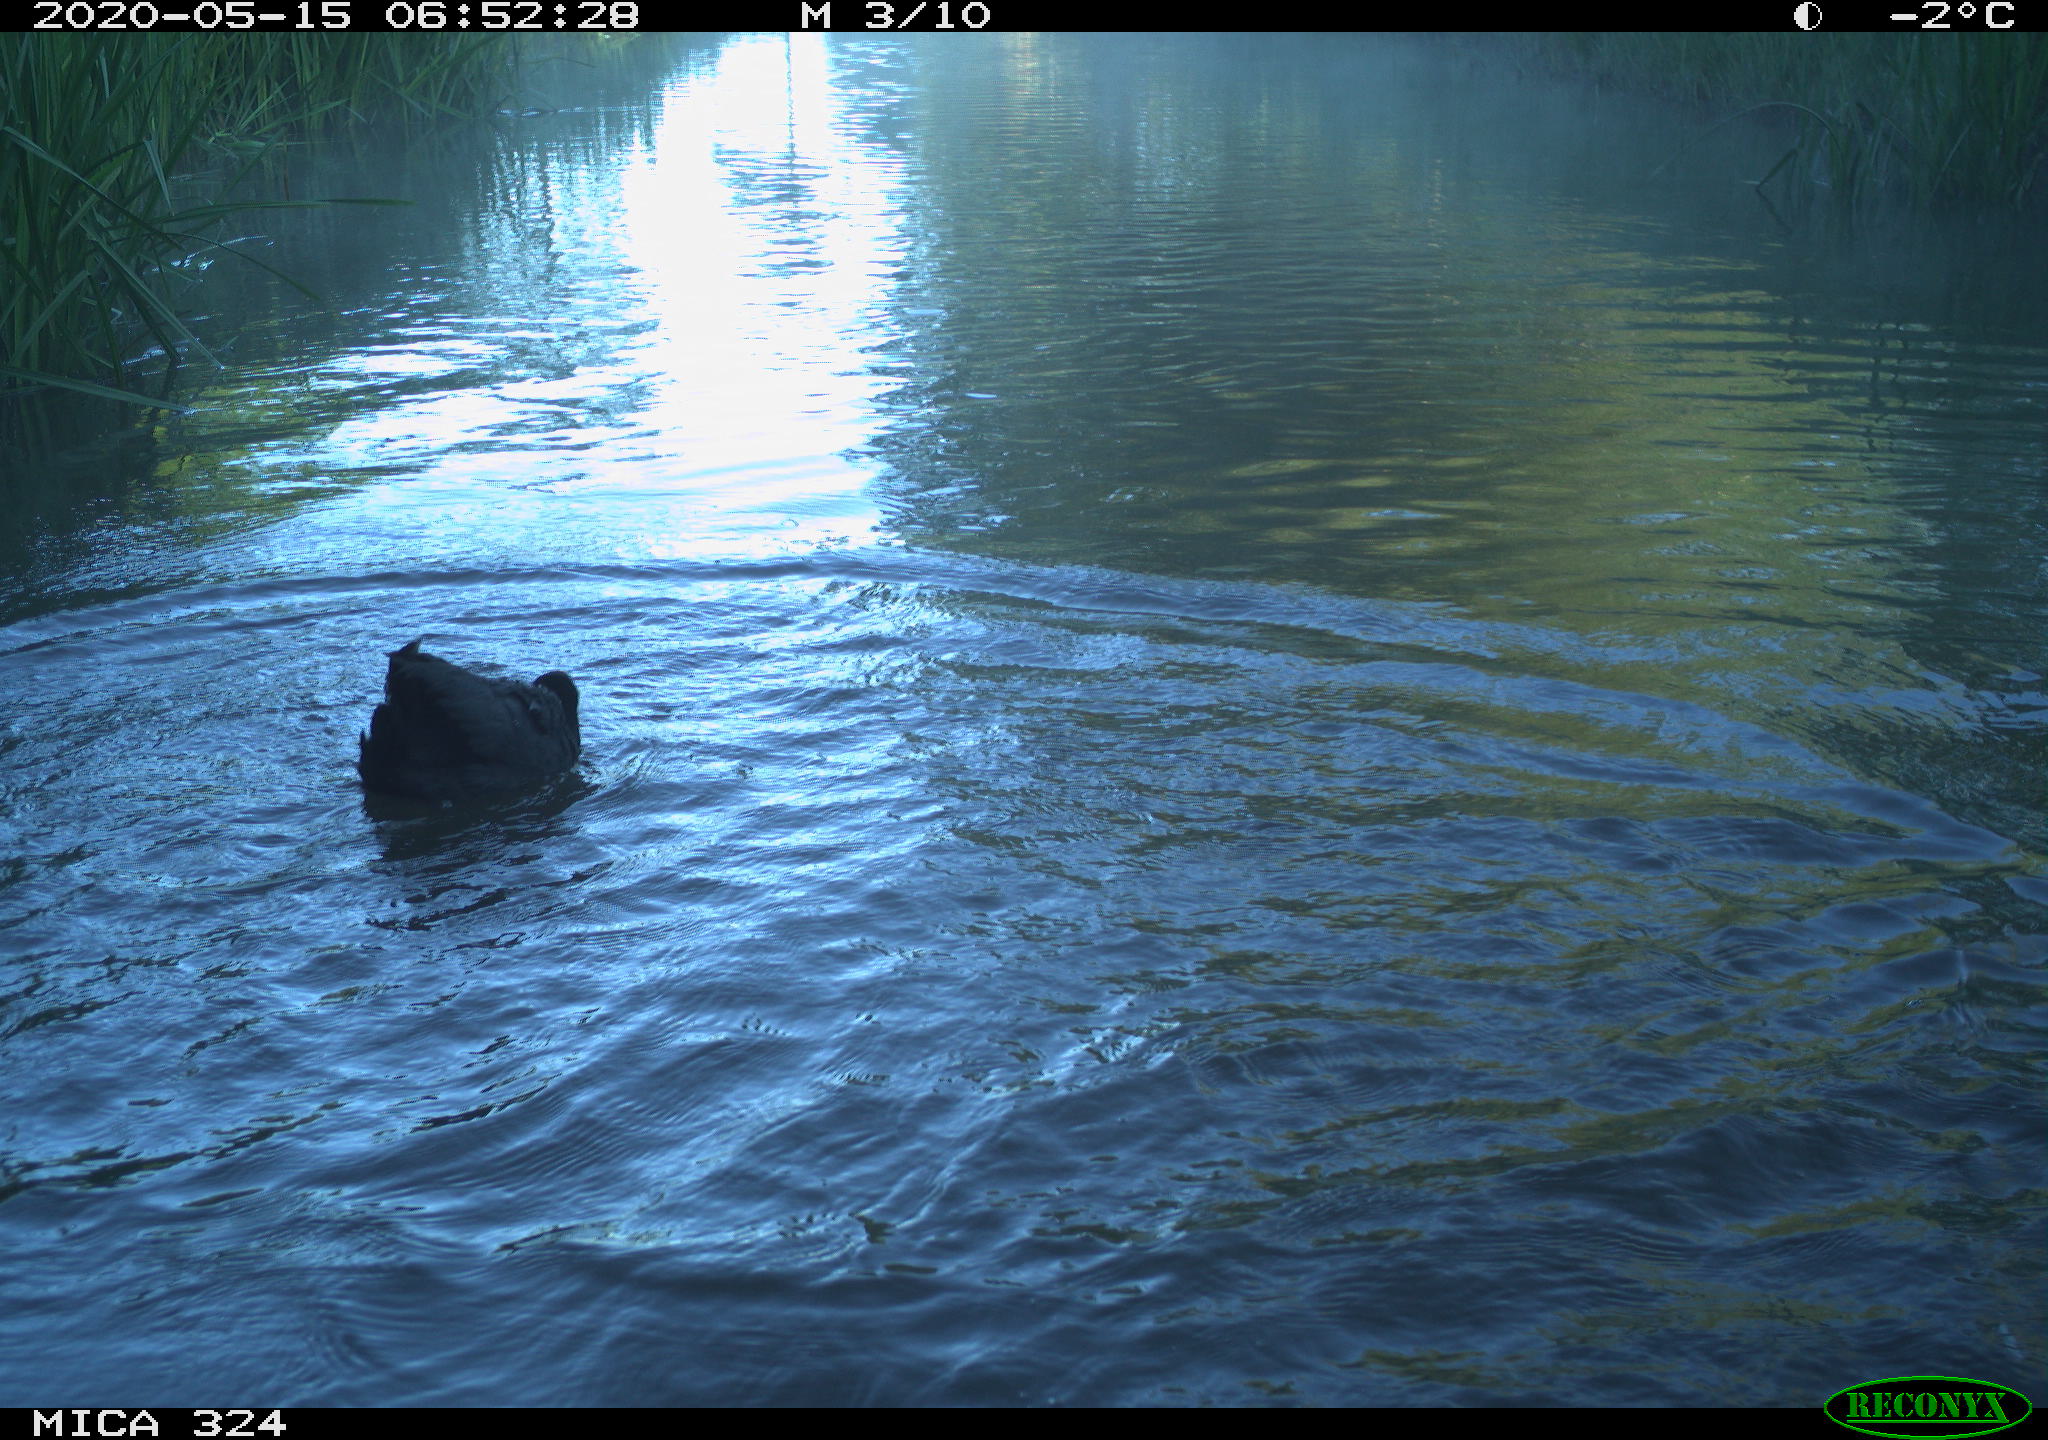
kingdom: Animalia
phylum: Chordata
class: Aves
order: Gruiformes
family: Rallidae
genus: Fulica
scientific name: Fulica atra
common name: Eurasian coot
